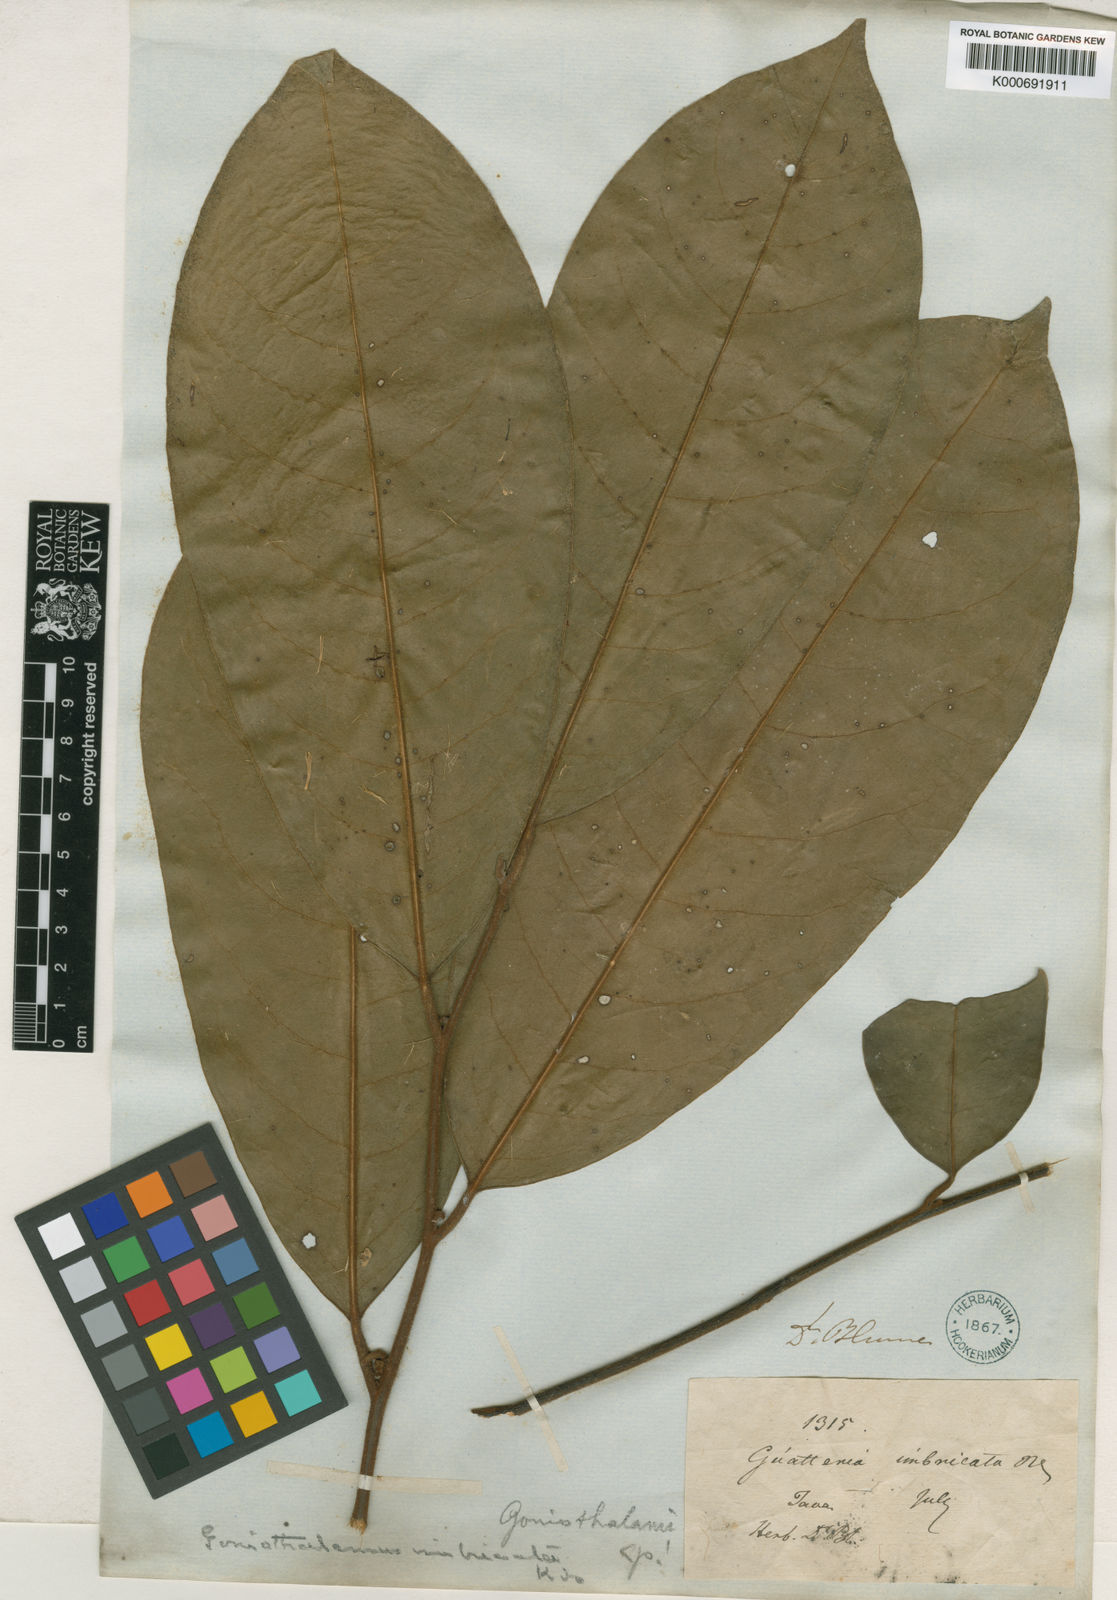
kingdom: Plantae
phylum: Tracheophyta
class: Magnoliopsida
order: Magnoliales
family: Annonaceae
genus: Goniothalamus
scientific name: Goniothalamus imbricatus
